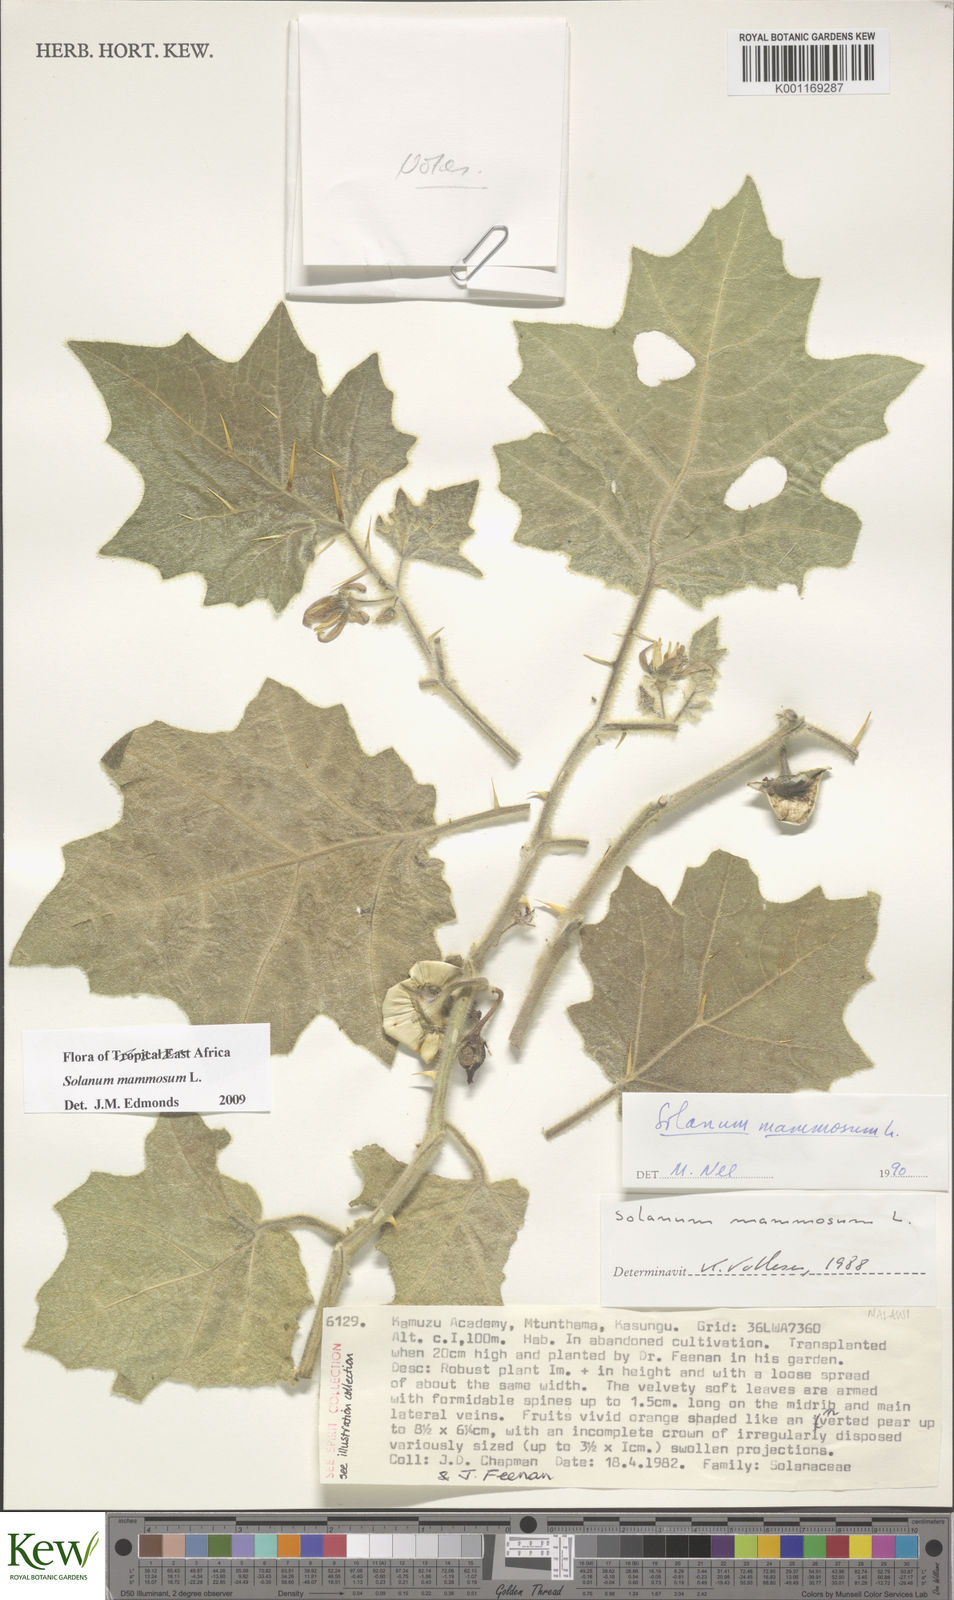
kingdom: Plantae
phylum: Tracheophyta
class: Magnoliopsida
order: Solanales
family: Solanaceae
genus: Solanum
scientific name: Solanum mammosum
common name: Nipple fruit
